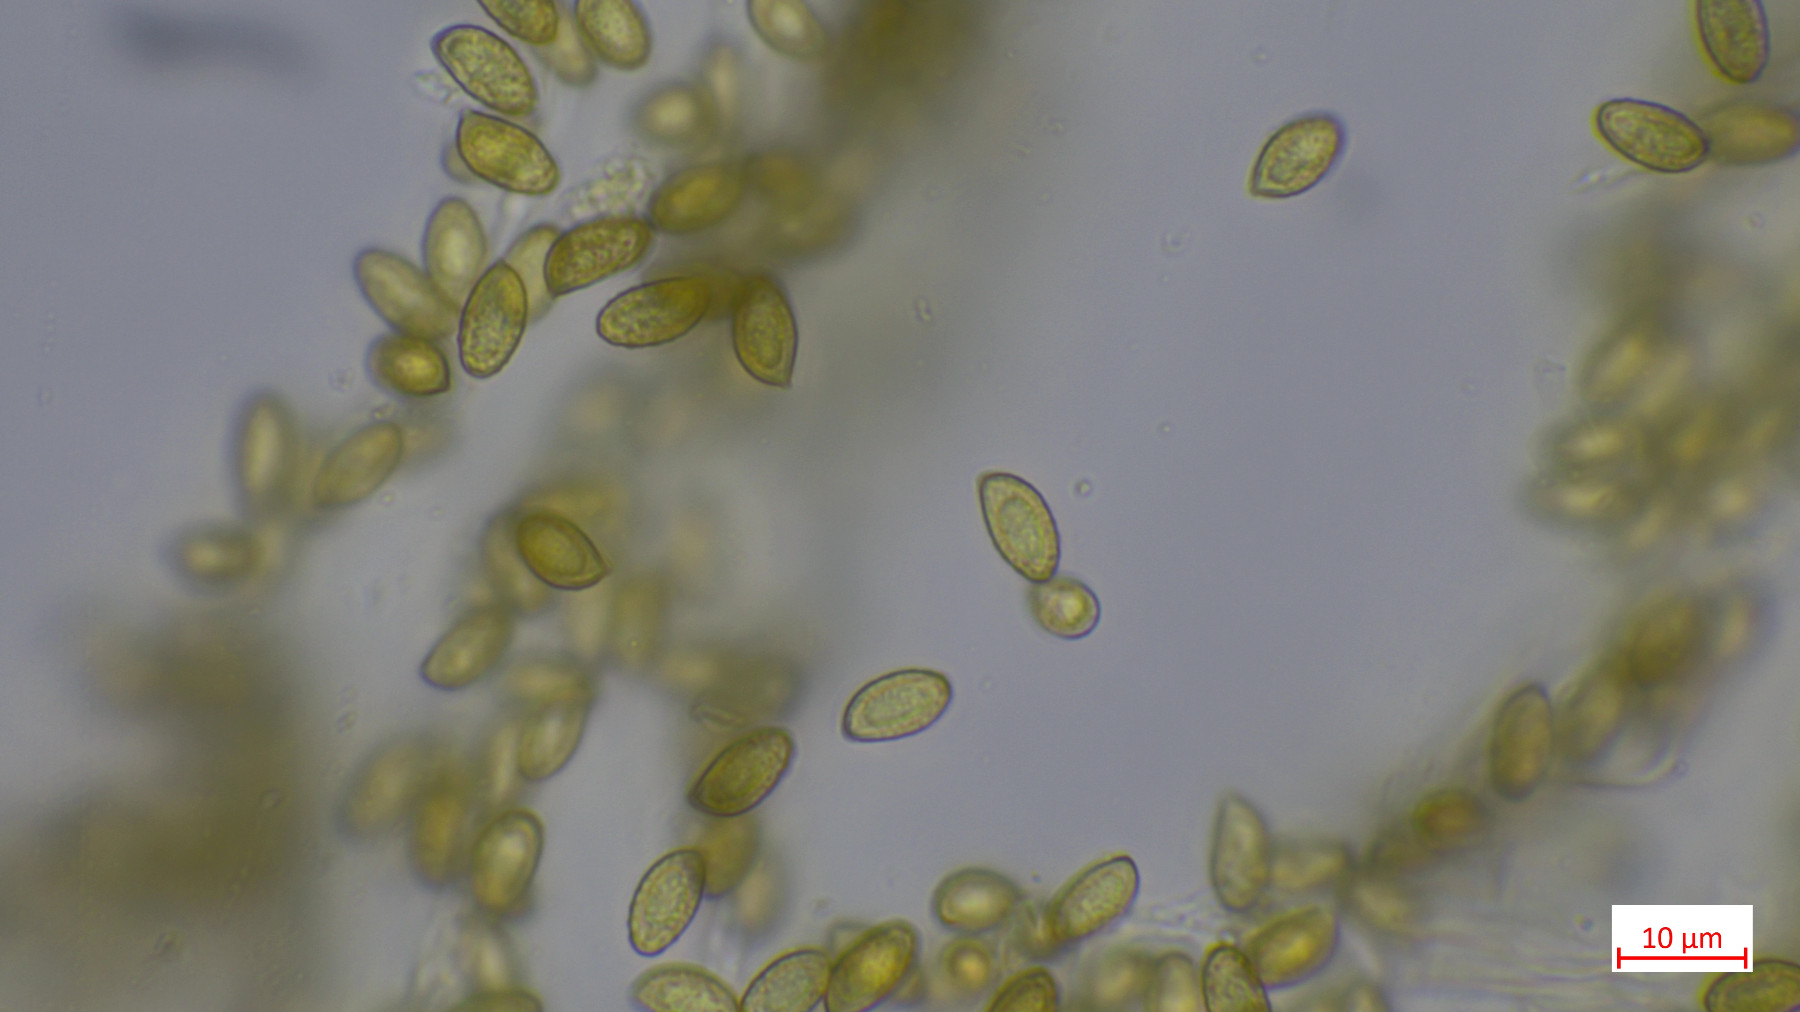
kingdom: Fungi
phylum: Basidiomycota
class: Agaricomycetes
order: Agaricales
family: Cortinariaceae
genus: Cortinarius
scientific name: Cortinarius
